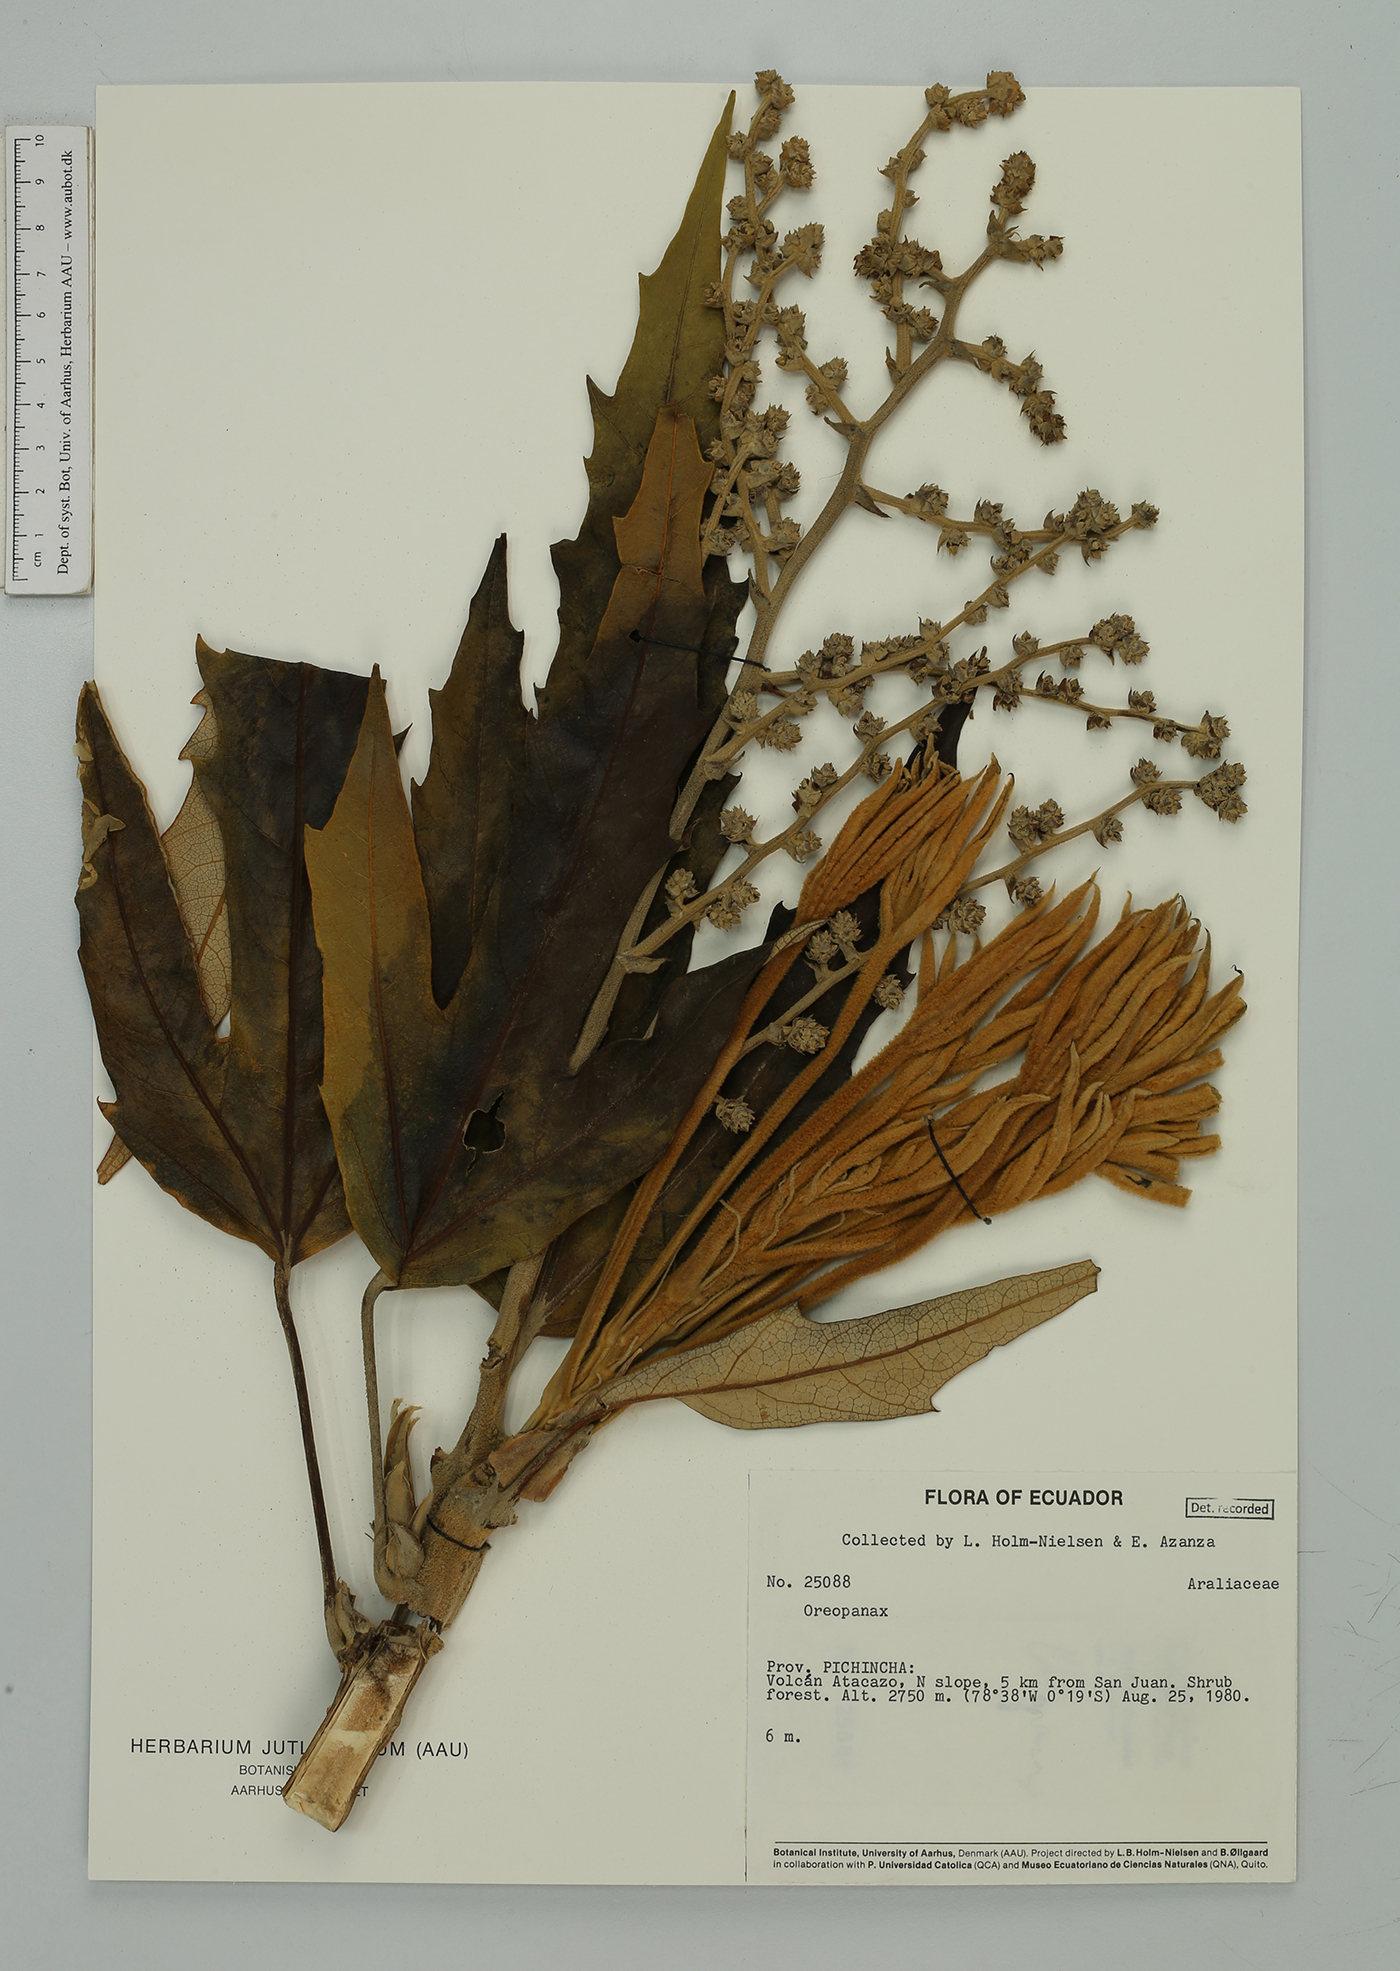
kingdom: Plantae
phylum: Tracheophyta
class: Magnoliopsida
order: Apiales
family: Araliaceae
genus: Oreopanax
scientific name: Oreopanax
